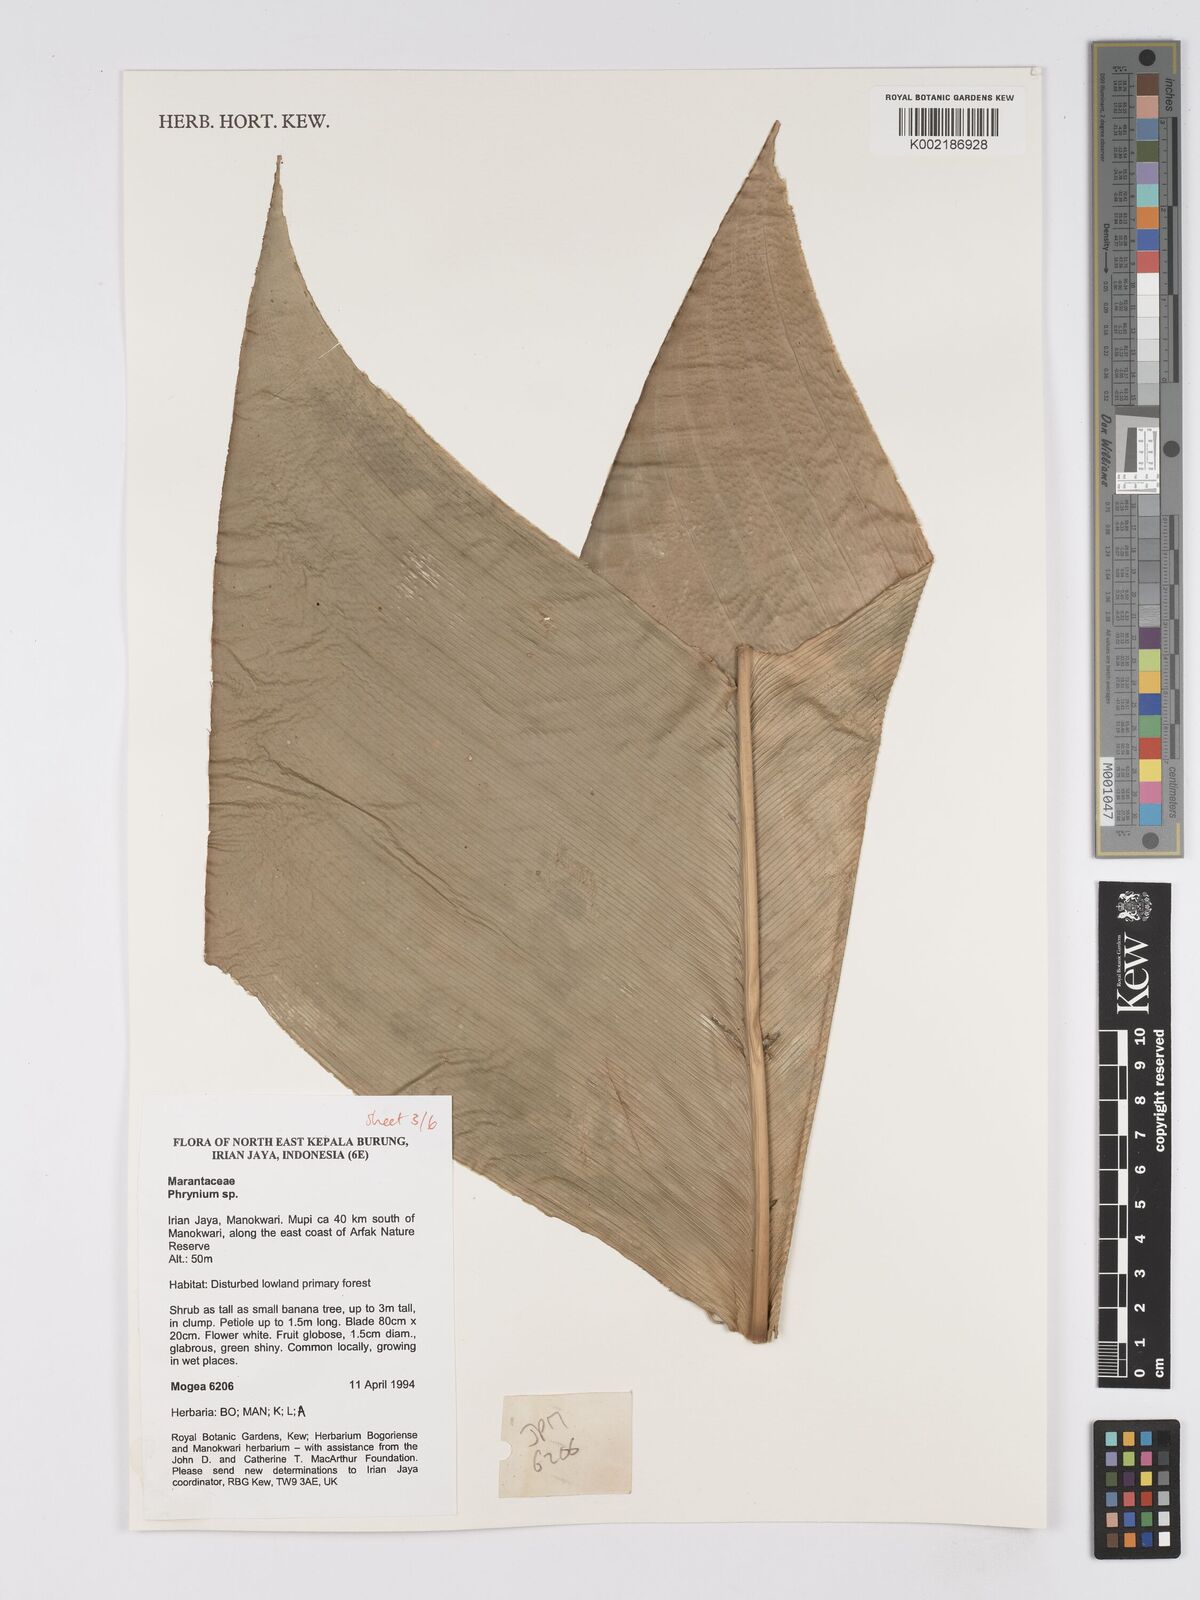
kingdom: Plantae
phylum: Tracheophyta
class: Liliopsida
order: Zingiberales
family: Marantaceae
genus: Phrynium
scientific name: Phrynium
